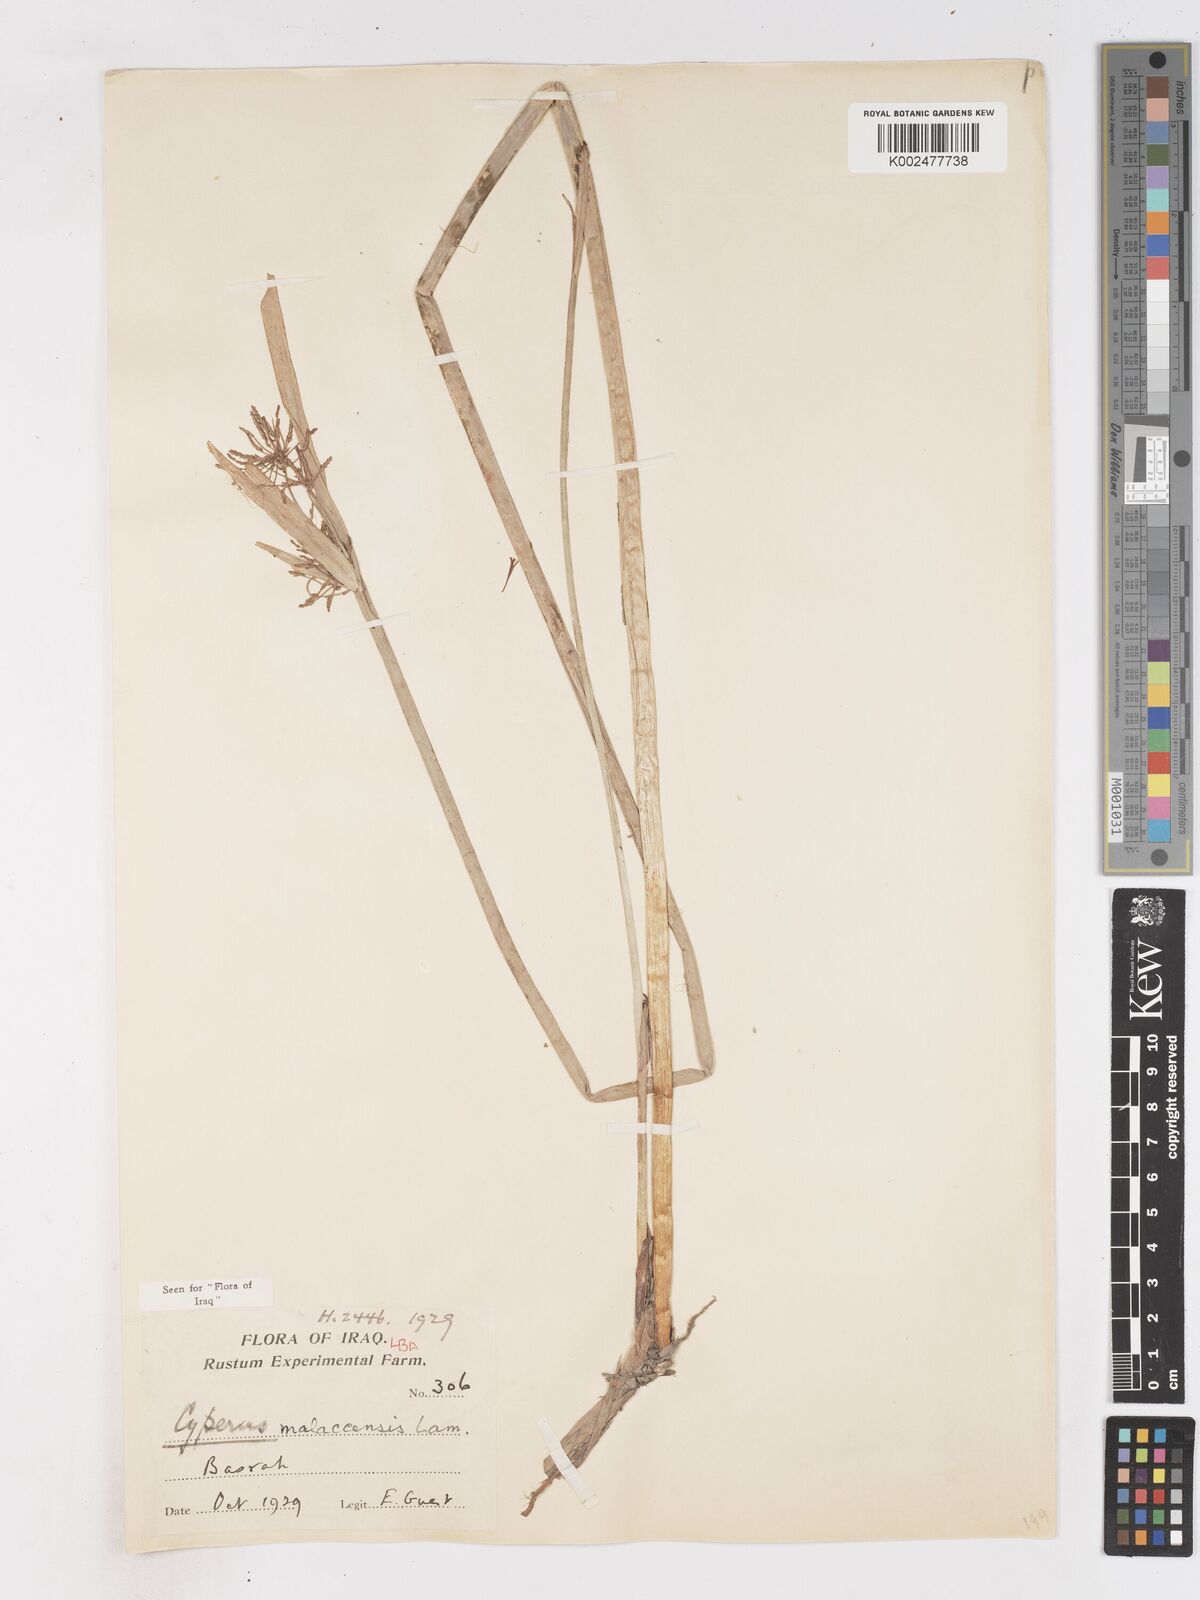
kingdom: Plantae
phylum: Tracheophyta
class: Liliopsida
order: Poales
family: Cyperaceae
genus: Cyperus
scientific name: Cyperus malaccensis
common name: Shichito matgrass
